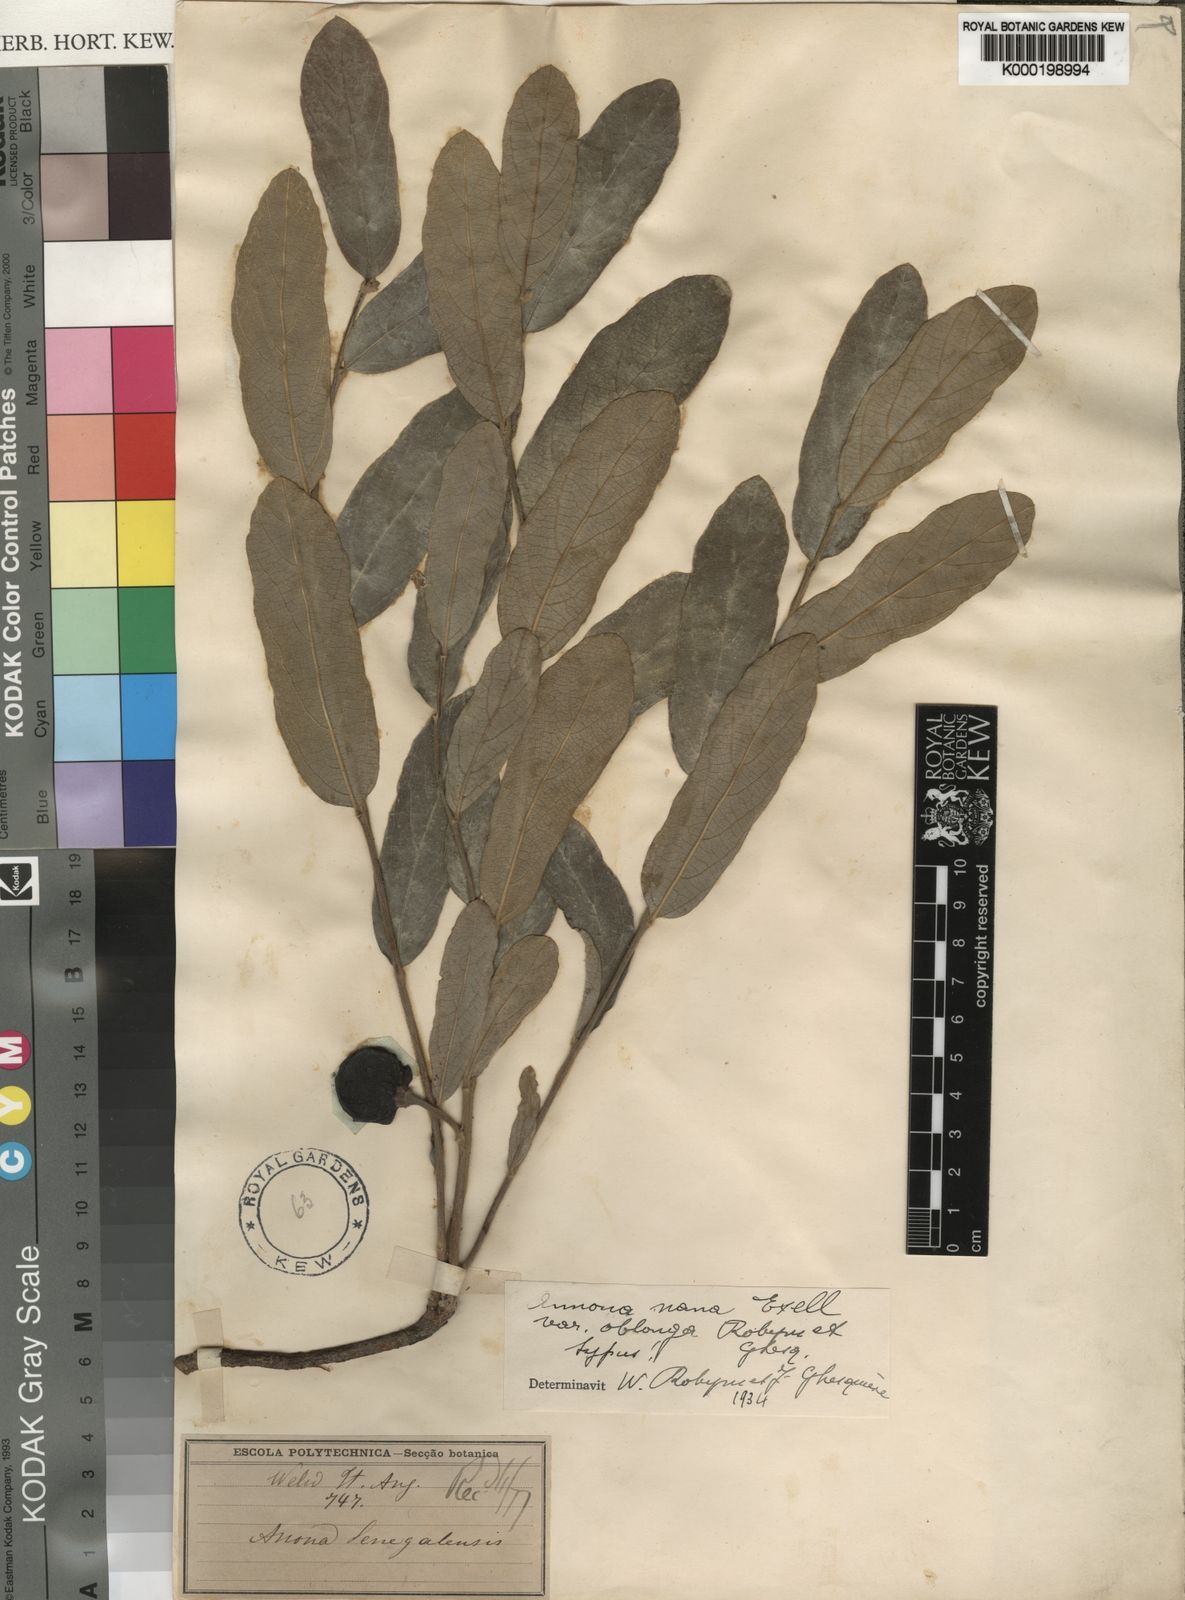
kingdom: Plantae
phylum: Tracheophyta
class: Magnoliopsida
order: Magnoliales
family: Annonaceae
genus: Annona
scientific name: Annona stenophylla
